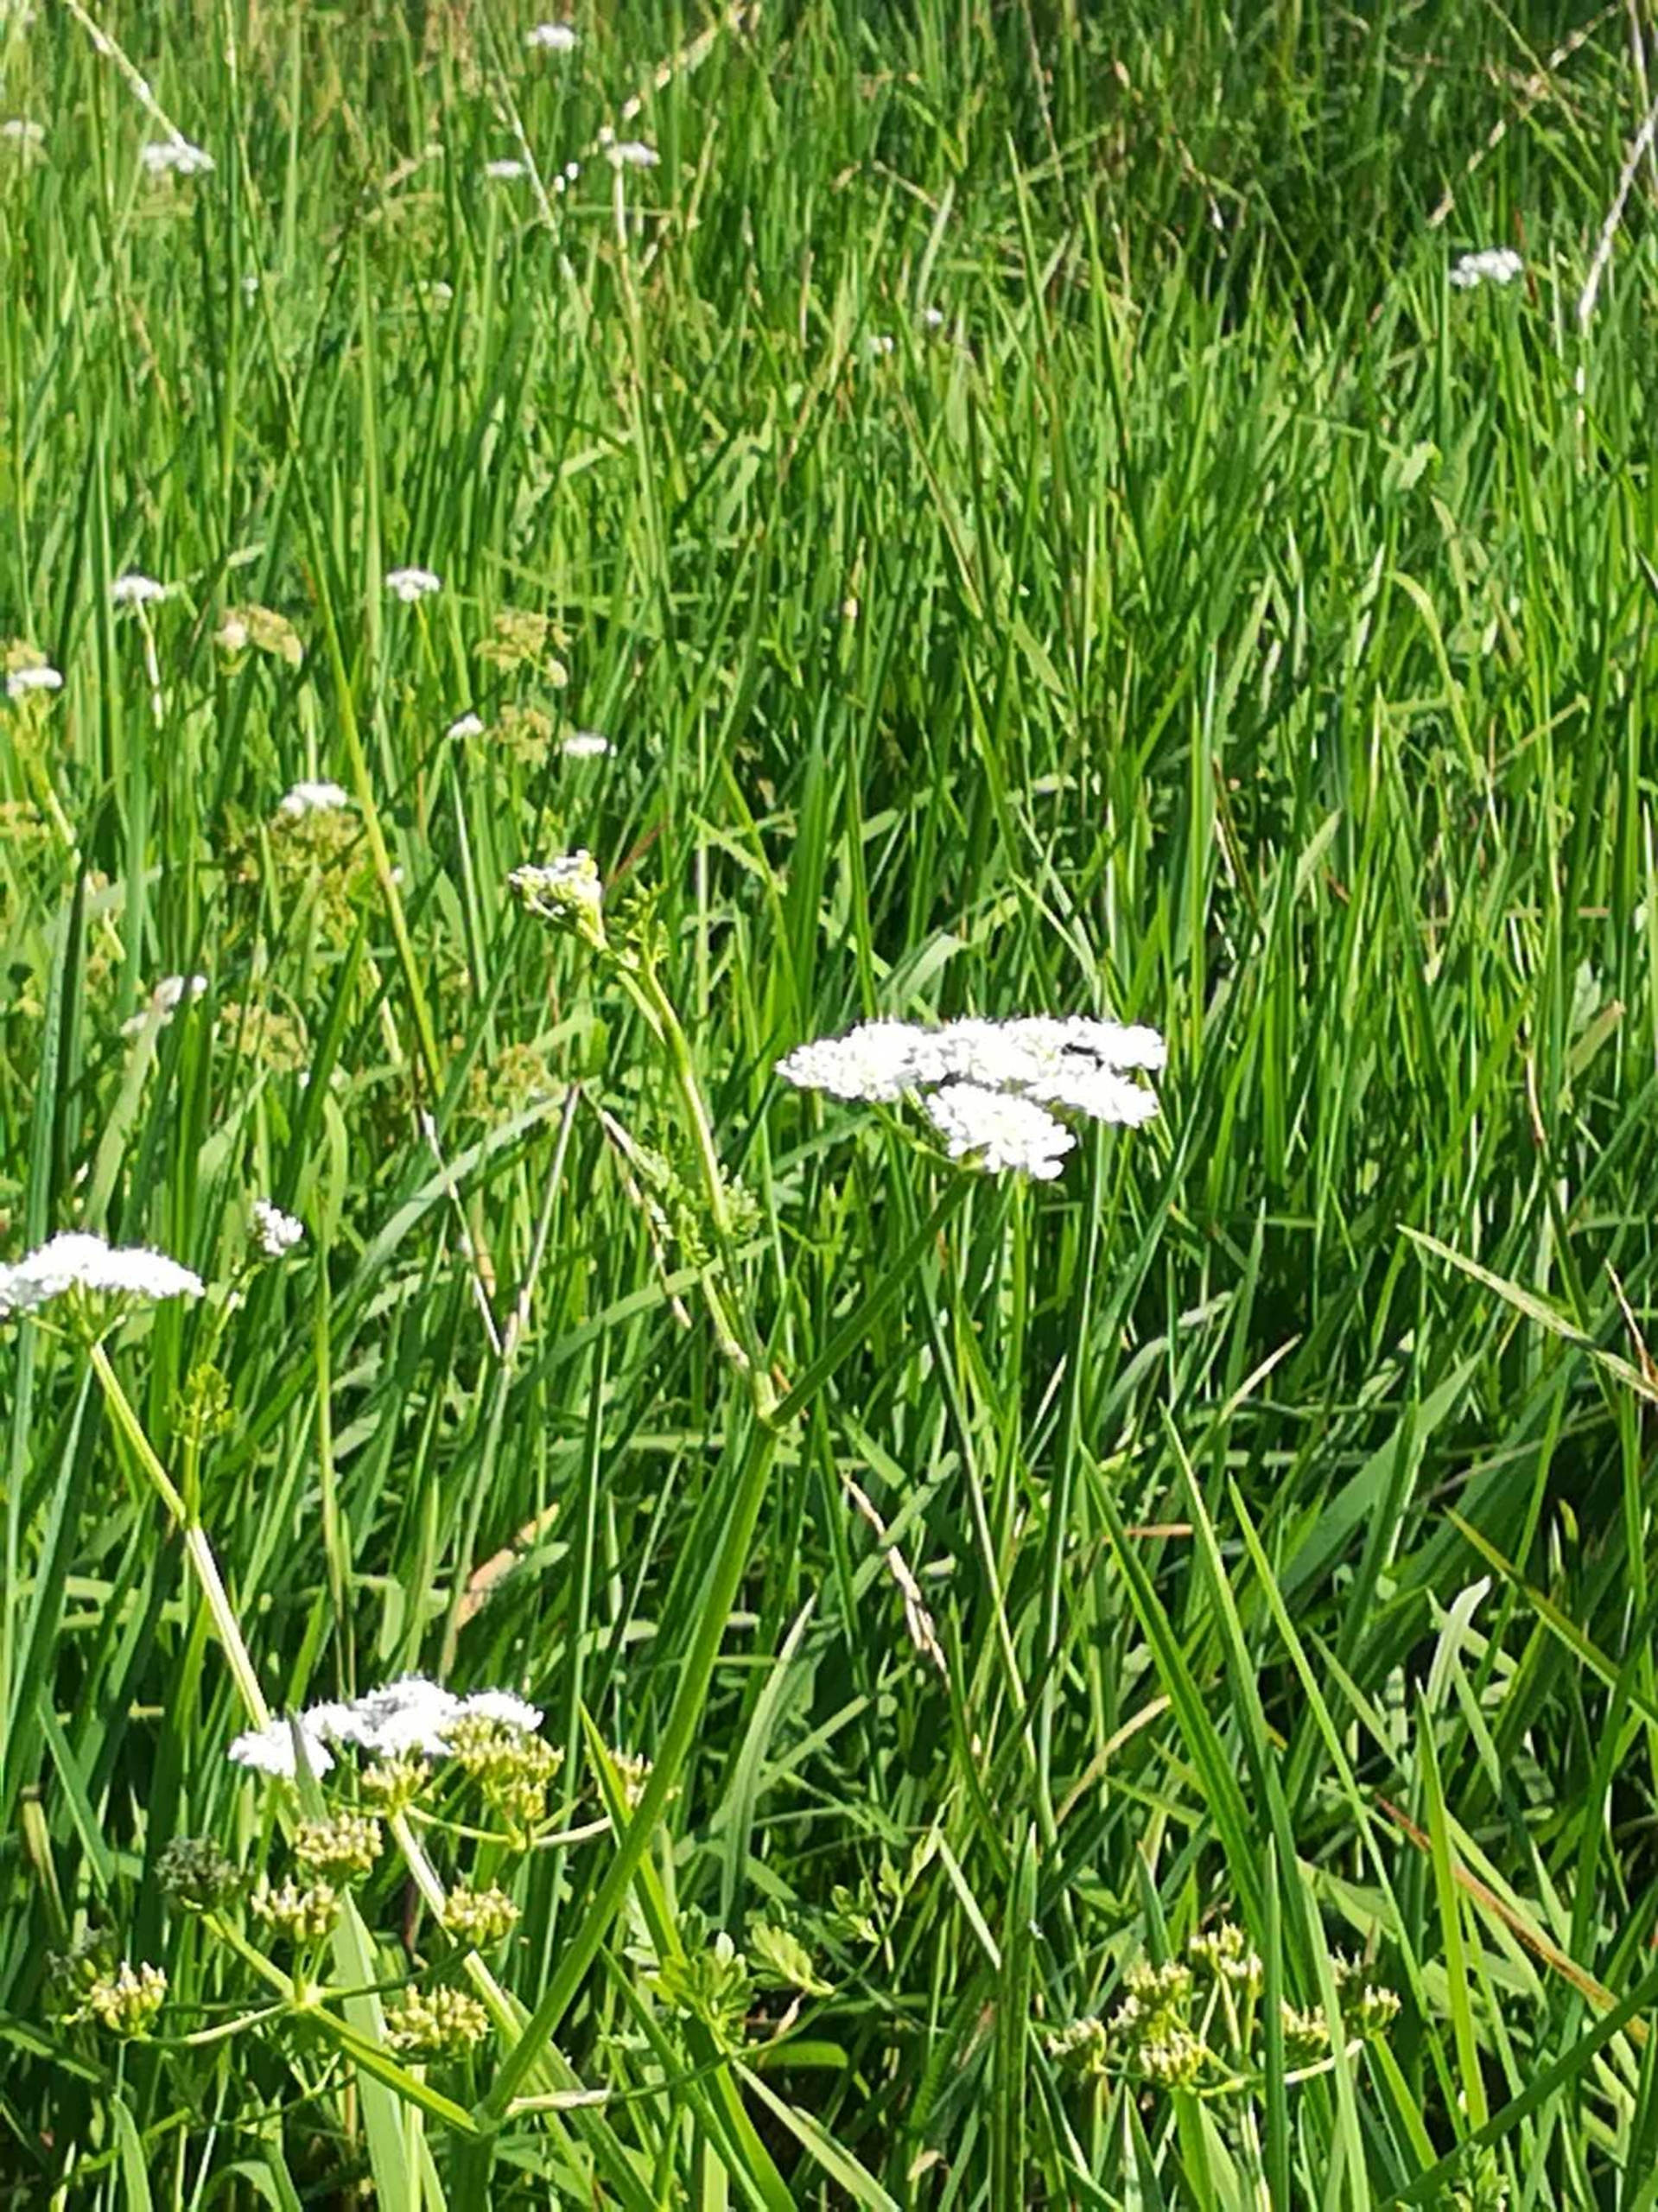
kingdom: Plantae
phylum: Tracheophyta
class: Magnoliopsida
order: Apiales
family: Apiaceae
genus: Oenanthe
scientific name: Oenanthe aquatica
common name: Billebo-klaseskærm
